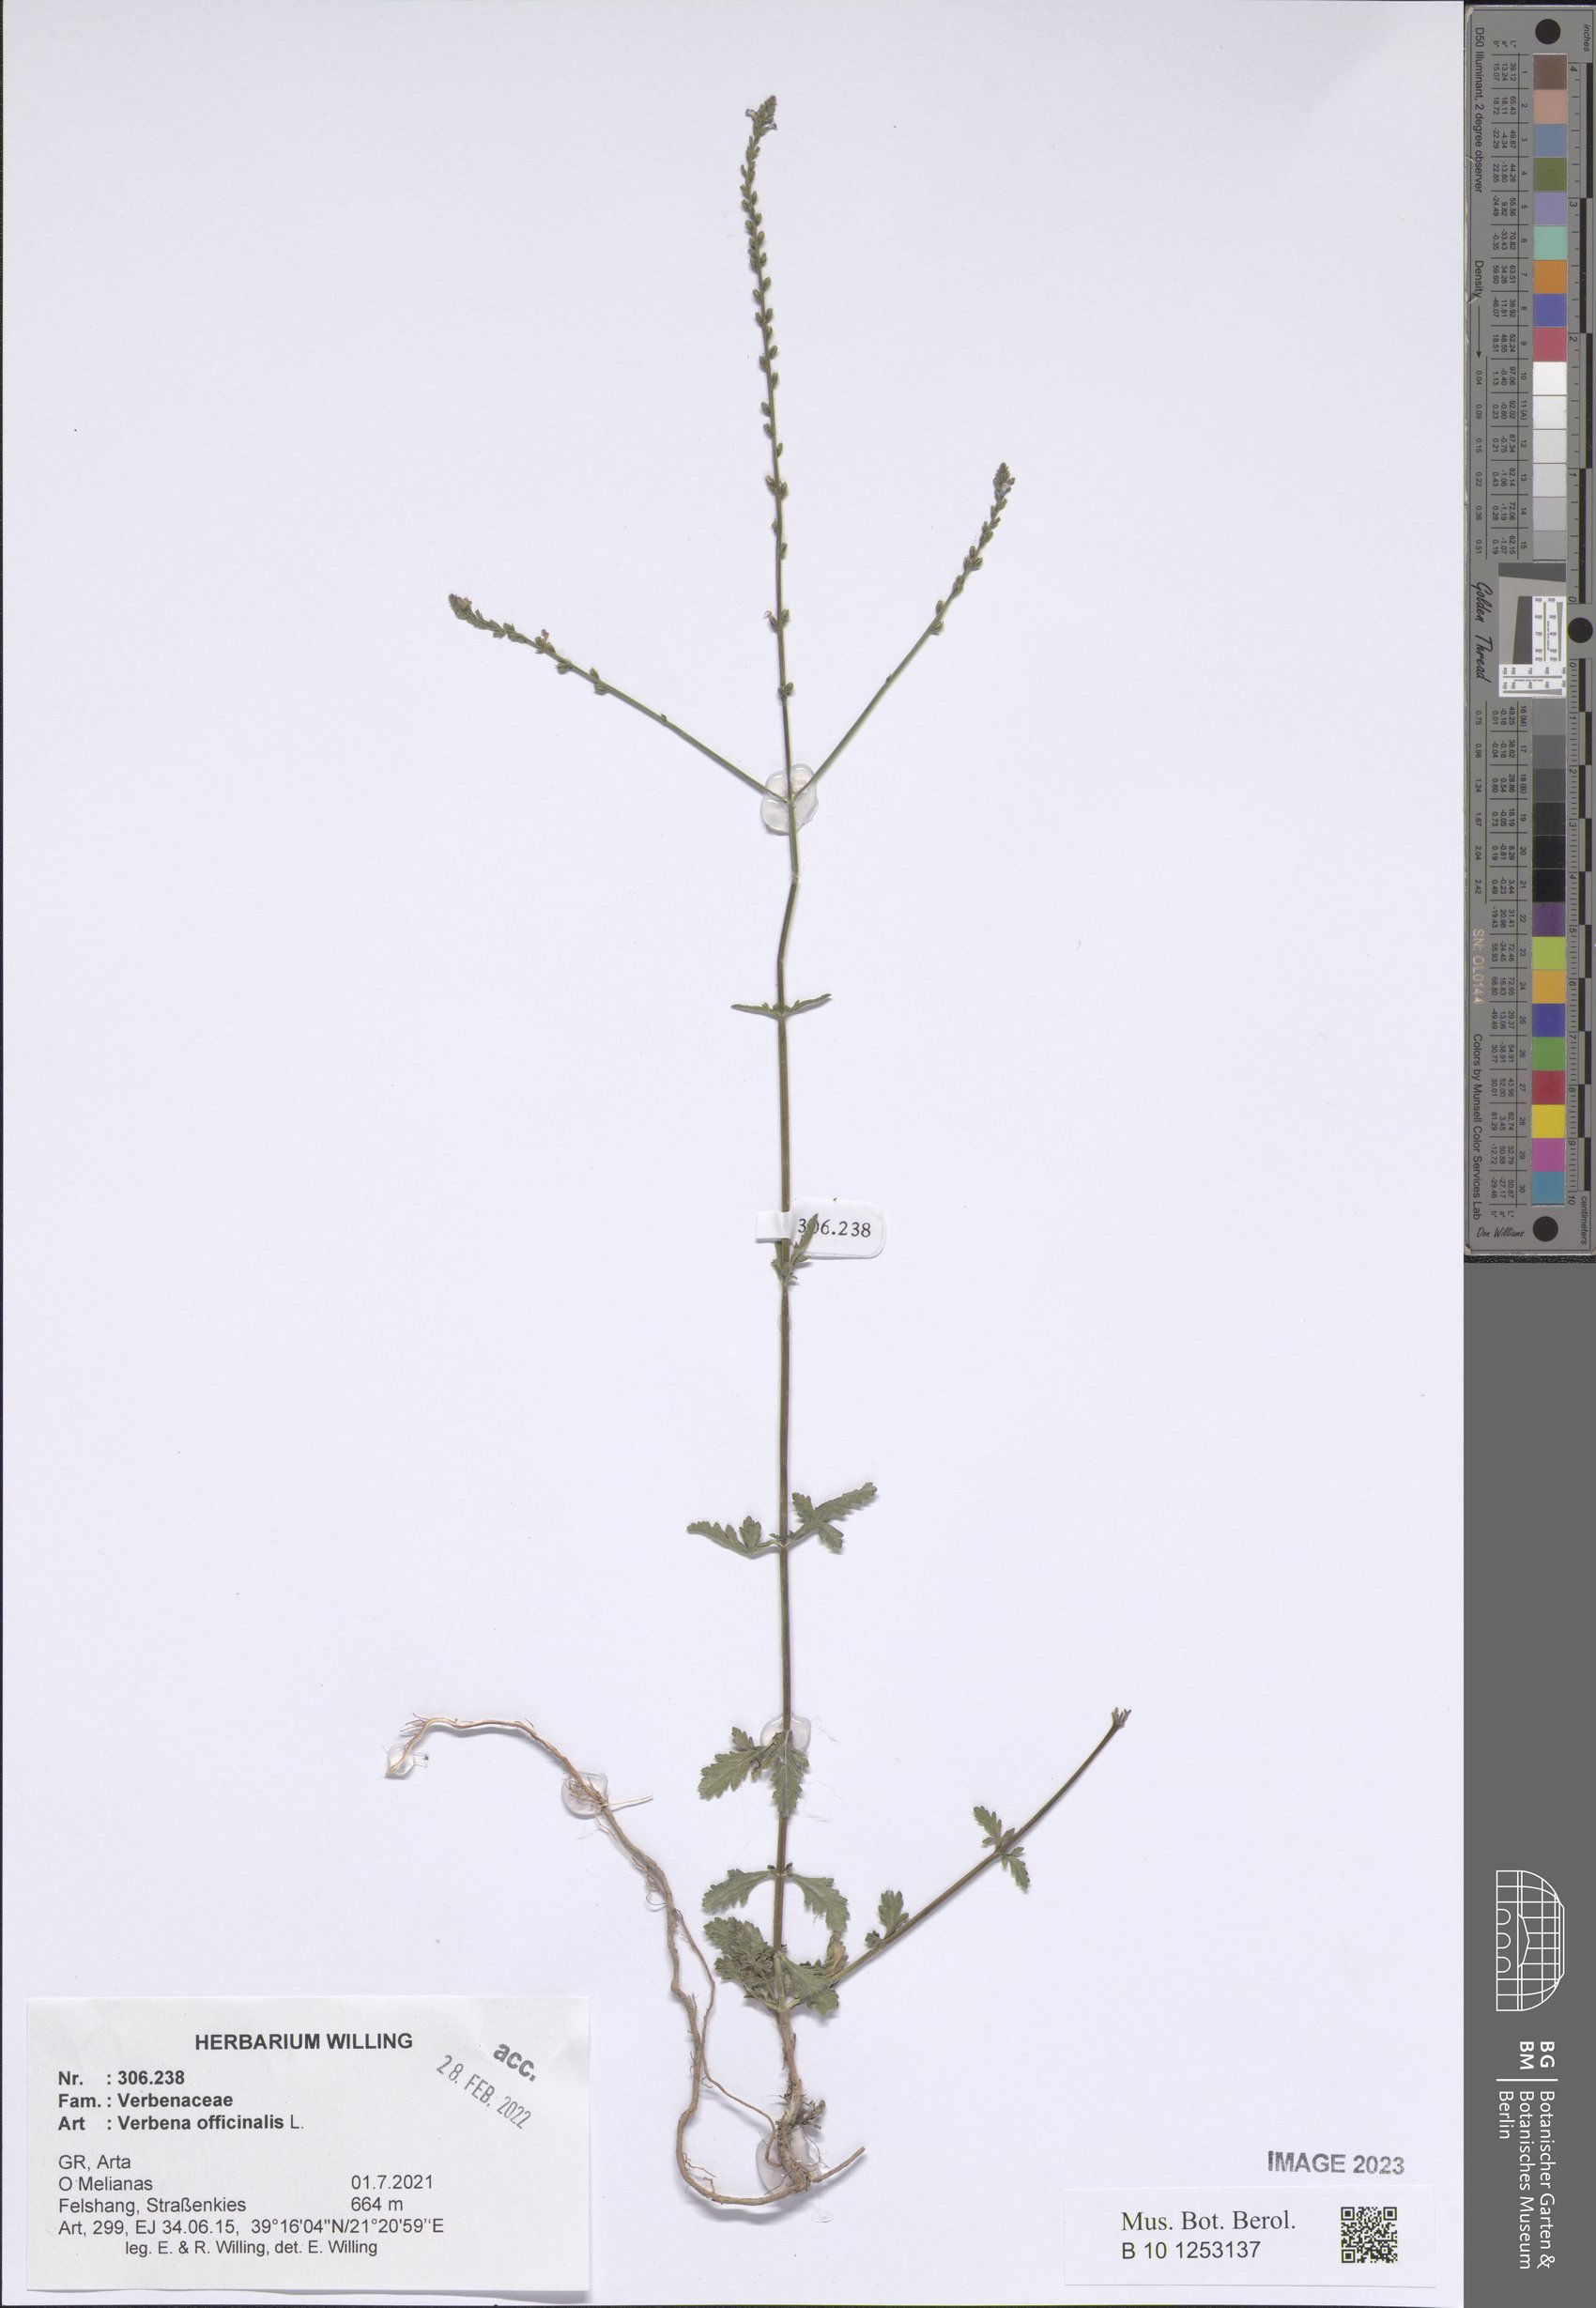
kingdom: Plantae
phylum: Tracheophyta
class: Magnoliopsida
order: Lamiales
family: Verbenaceae
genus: Verbena
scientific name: Verbena officinalis
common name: Vervain
